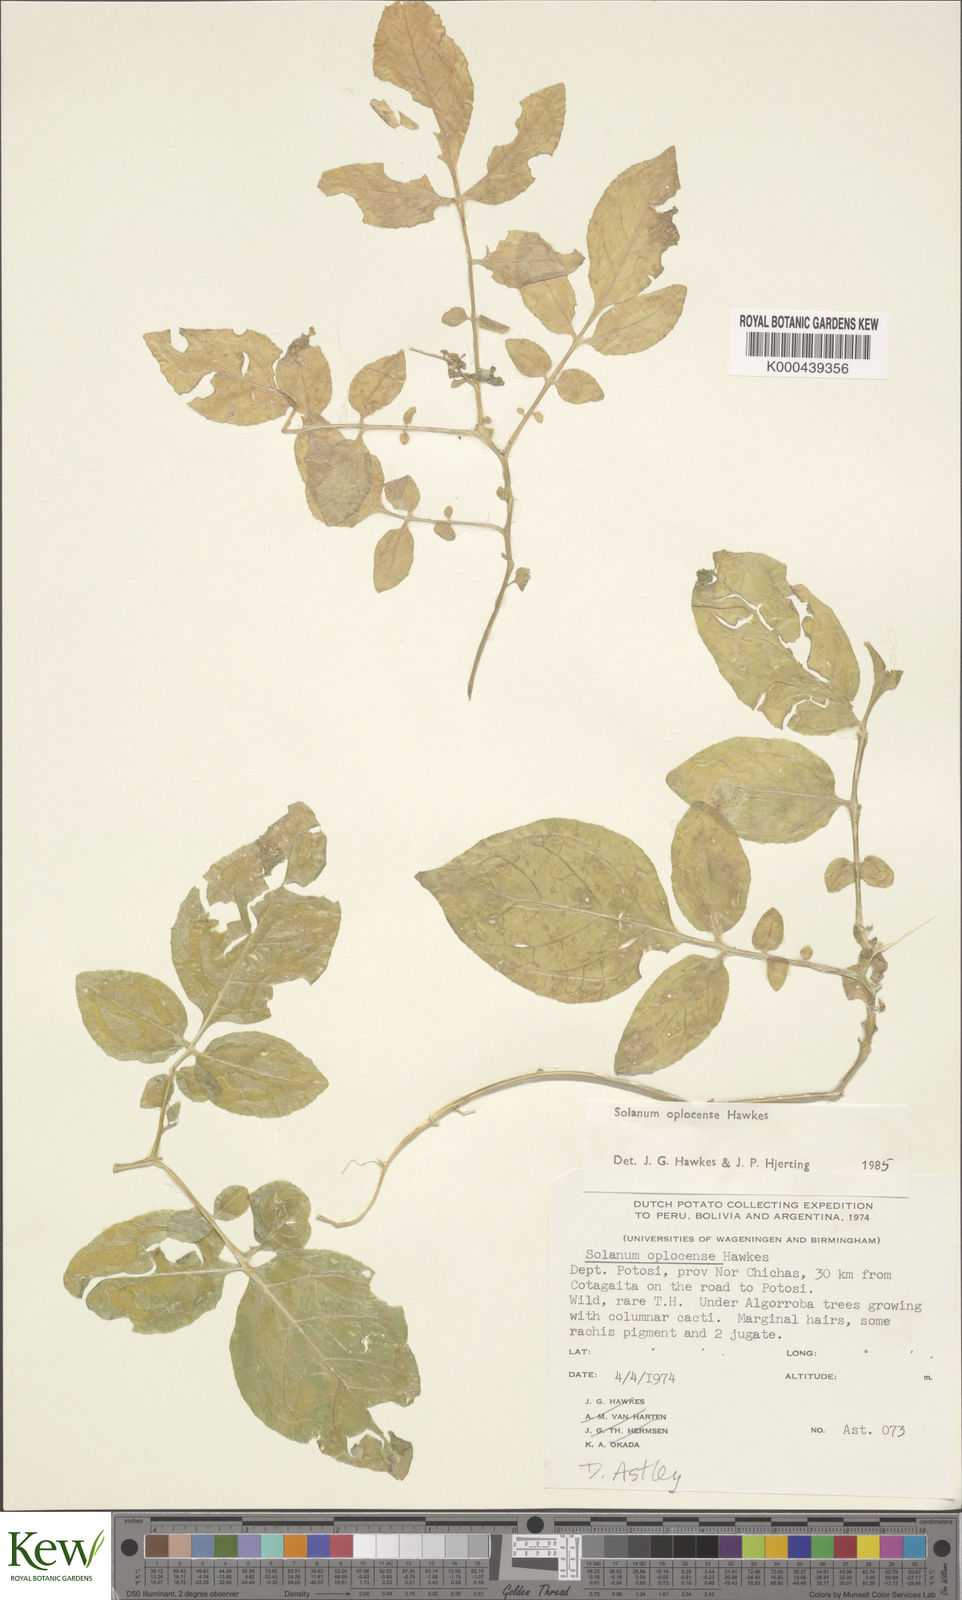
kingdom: Plantae
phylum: Tracheophyta
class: Magnoliopsida
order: Solanales
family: Solanaceae
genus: Solanum
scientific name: Solanum brevicaule
